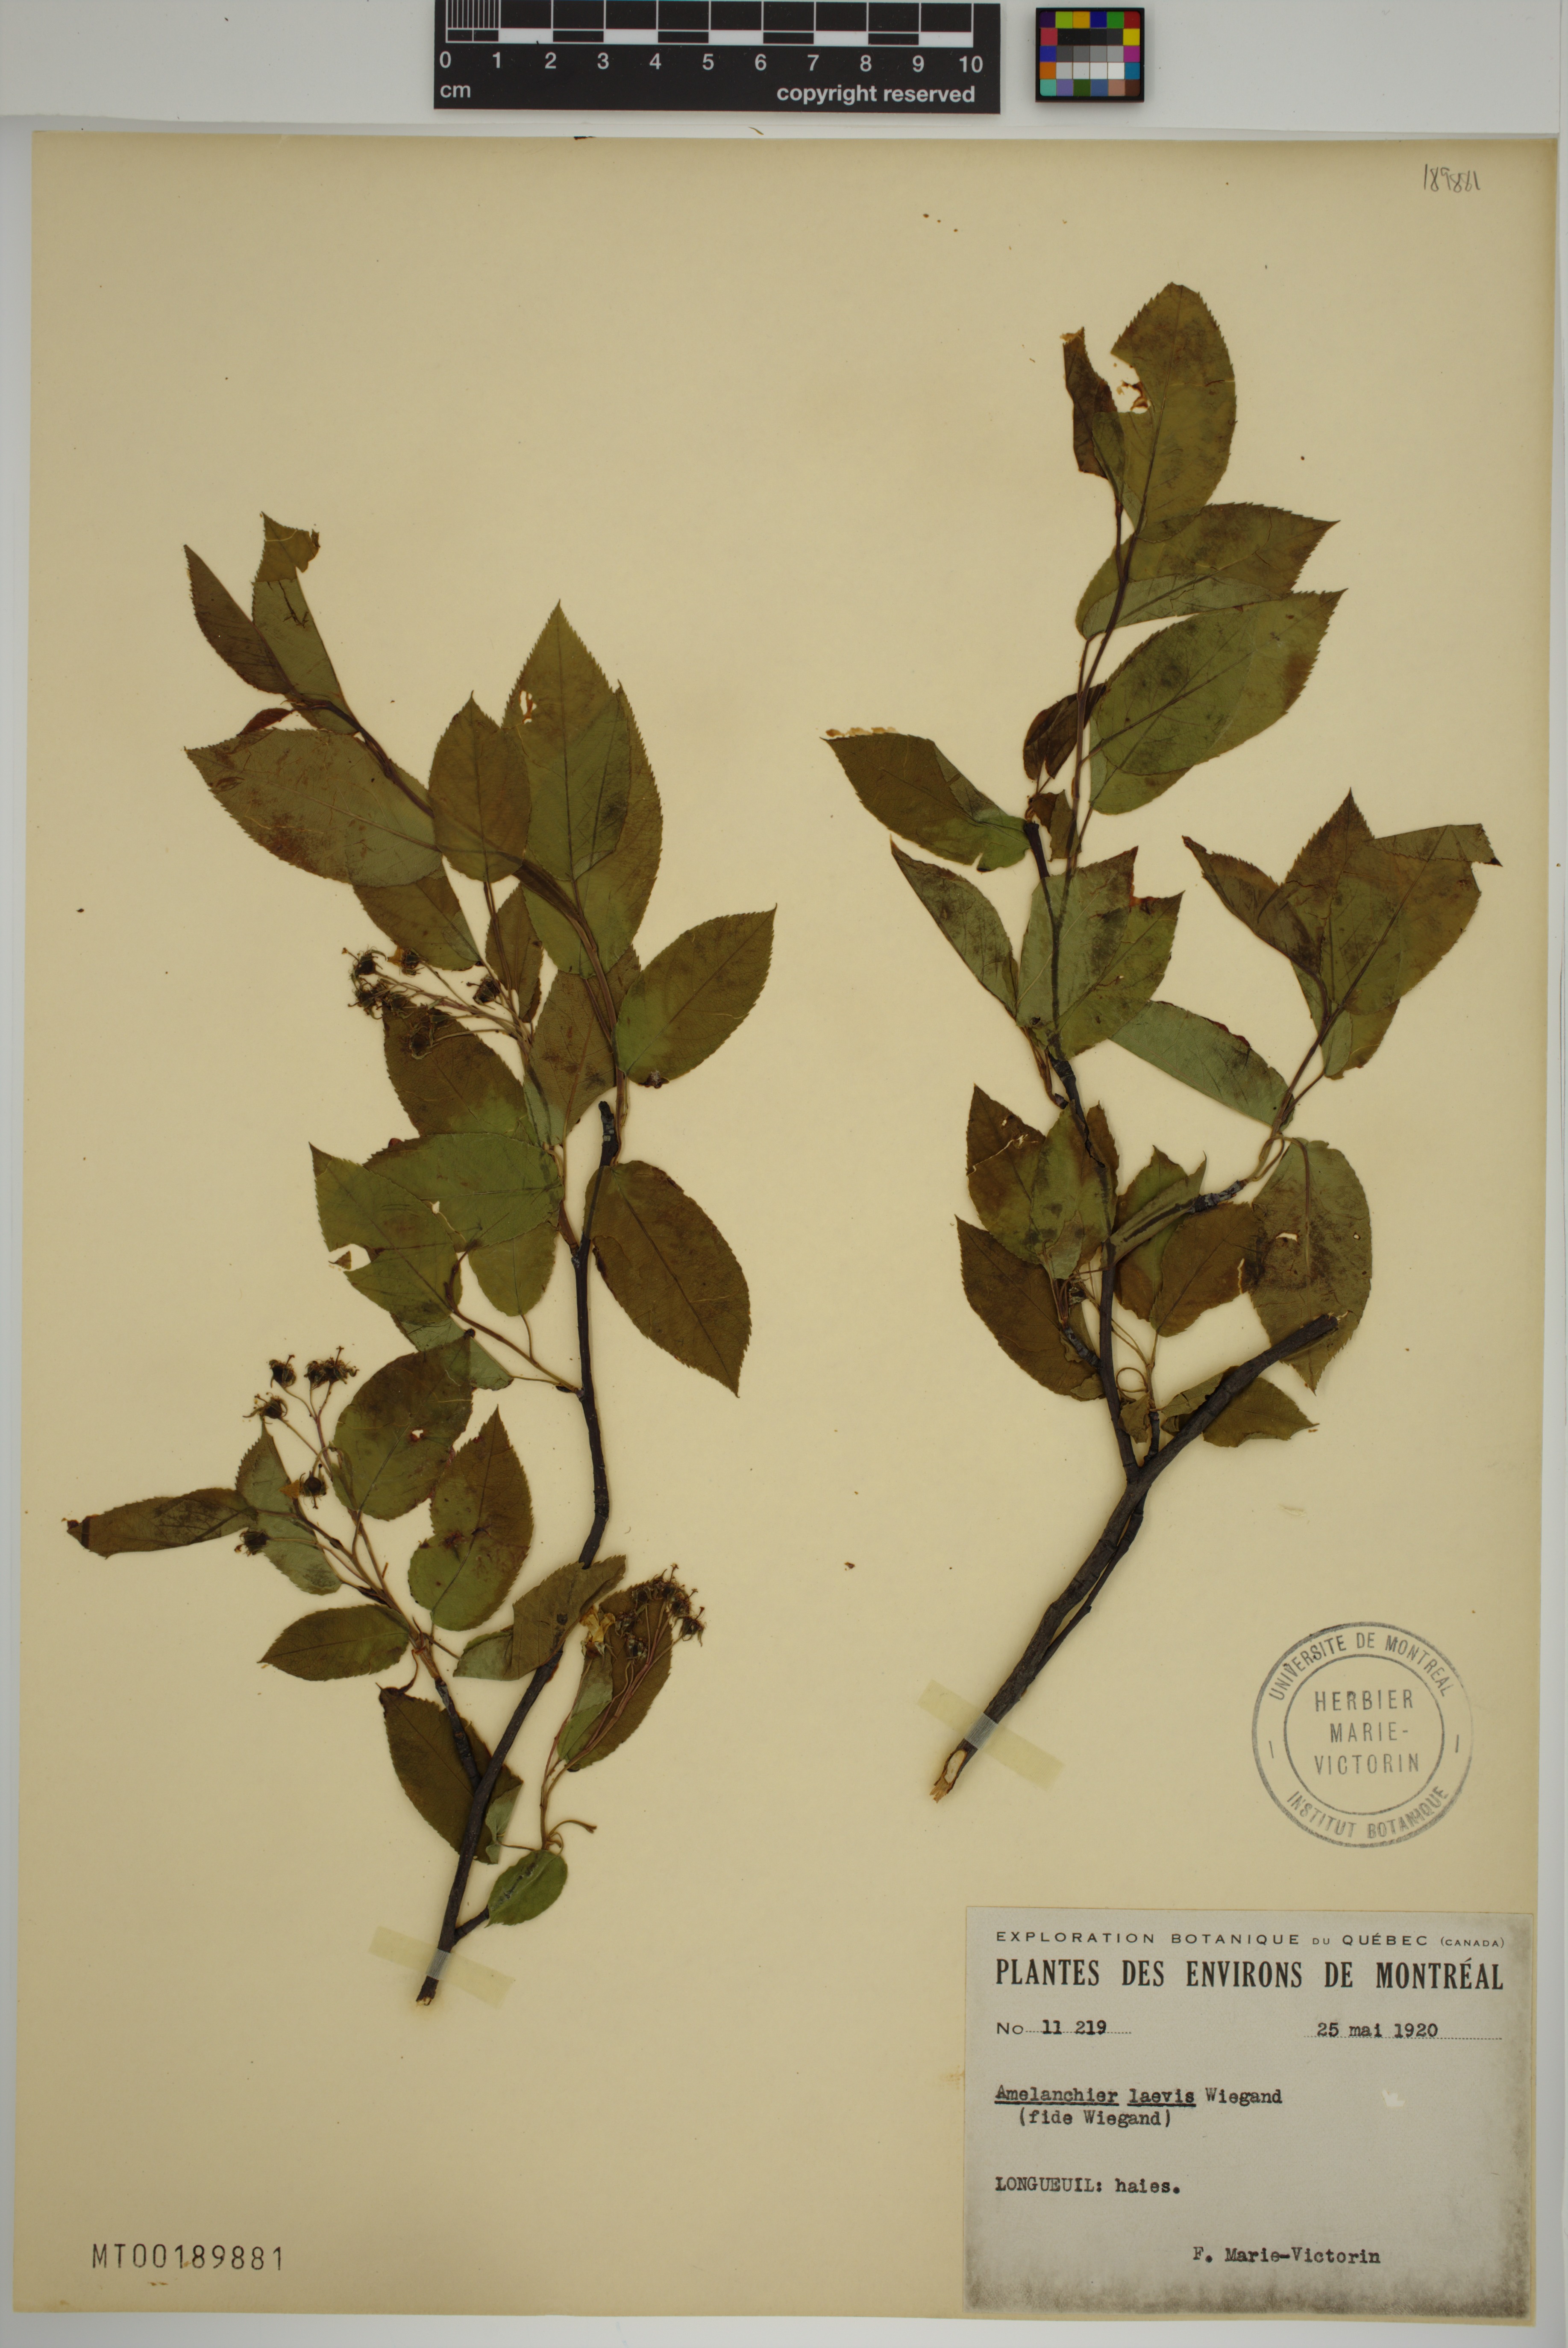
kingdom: Plantae
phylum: Tracheophyta
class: Magnoliopsida
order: Rosales
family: Rosaceae
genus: Amelanchier
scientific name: Amelanchier laevis
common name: Allegheny serviceberry
